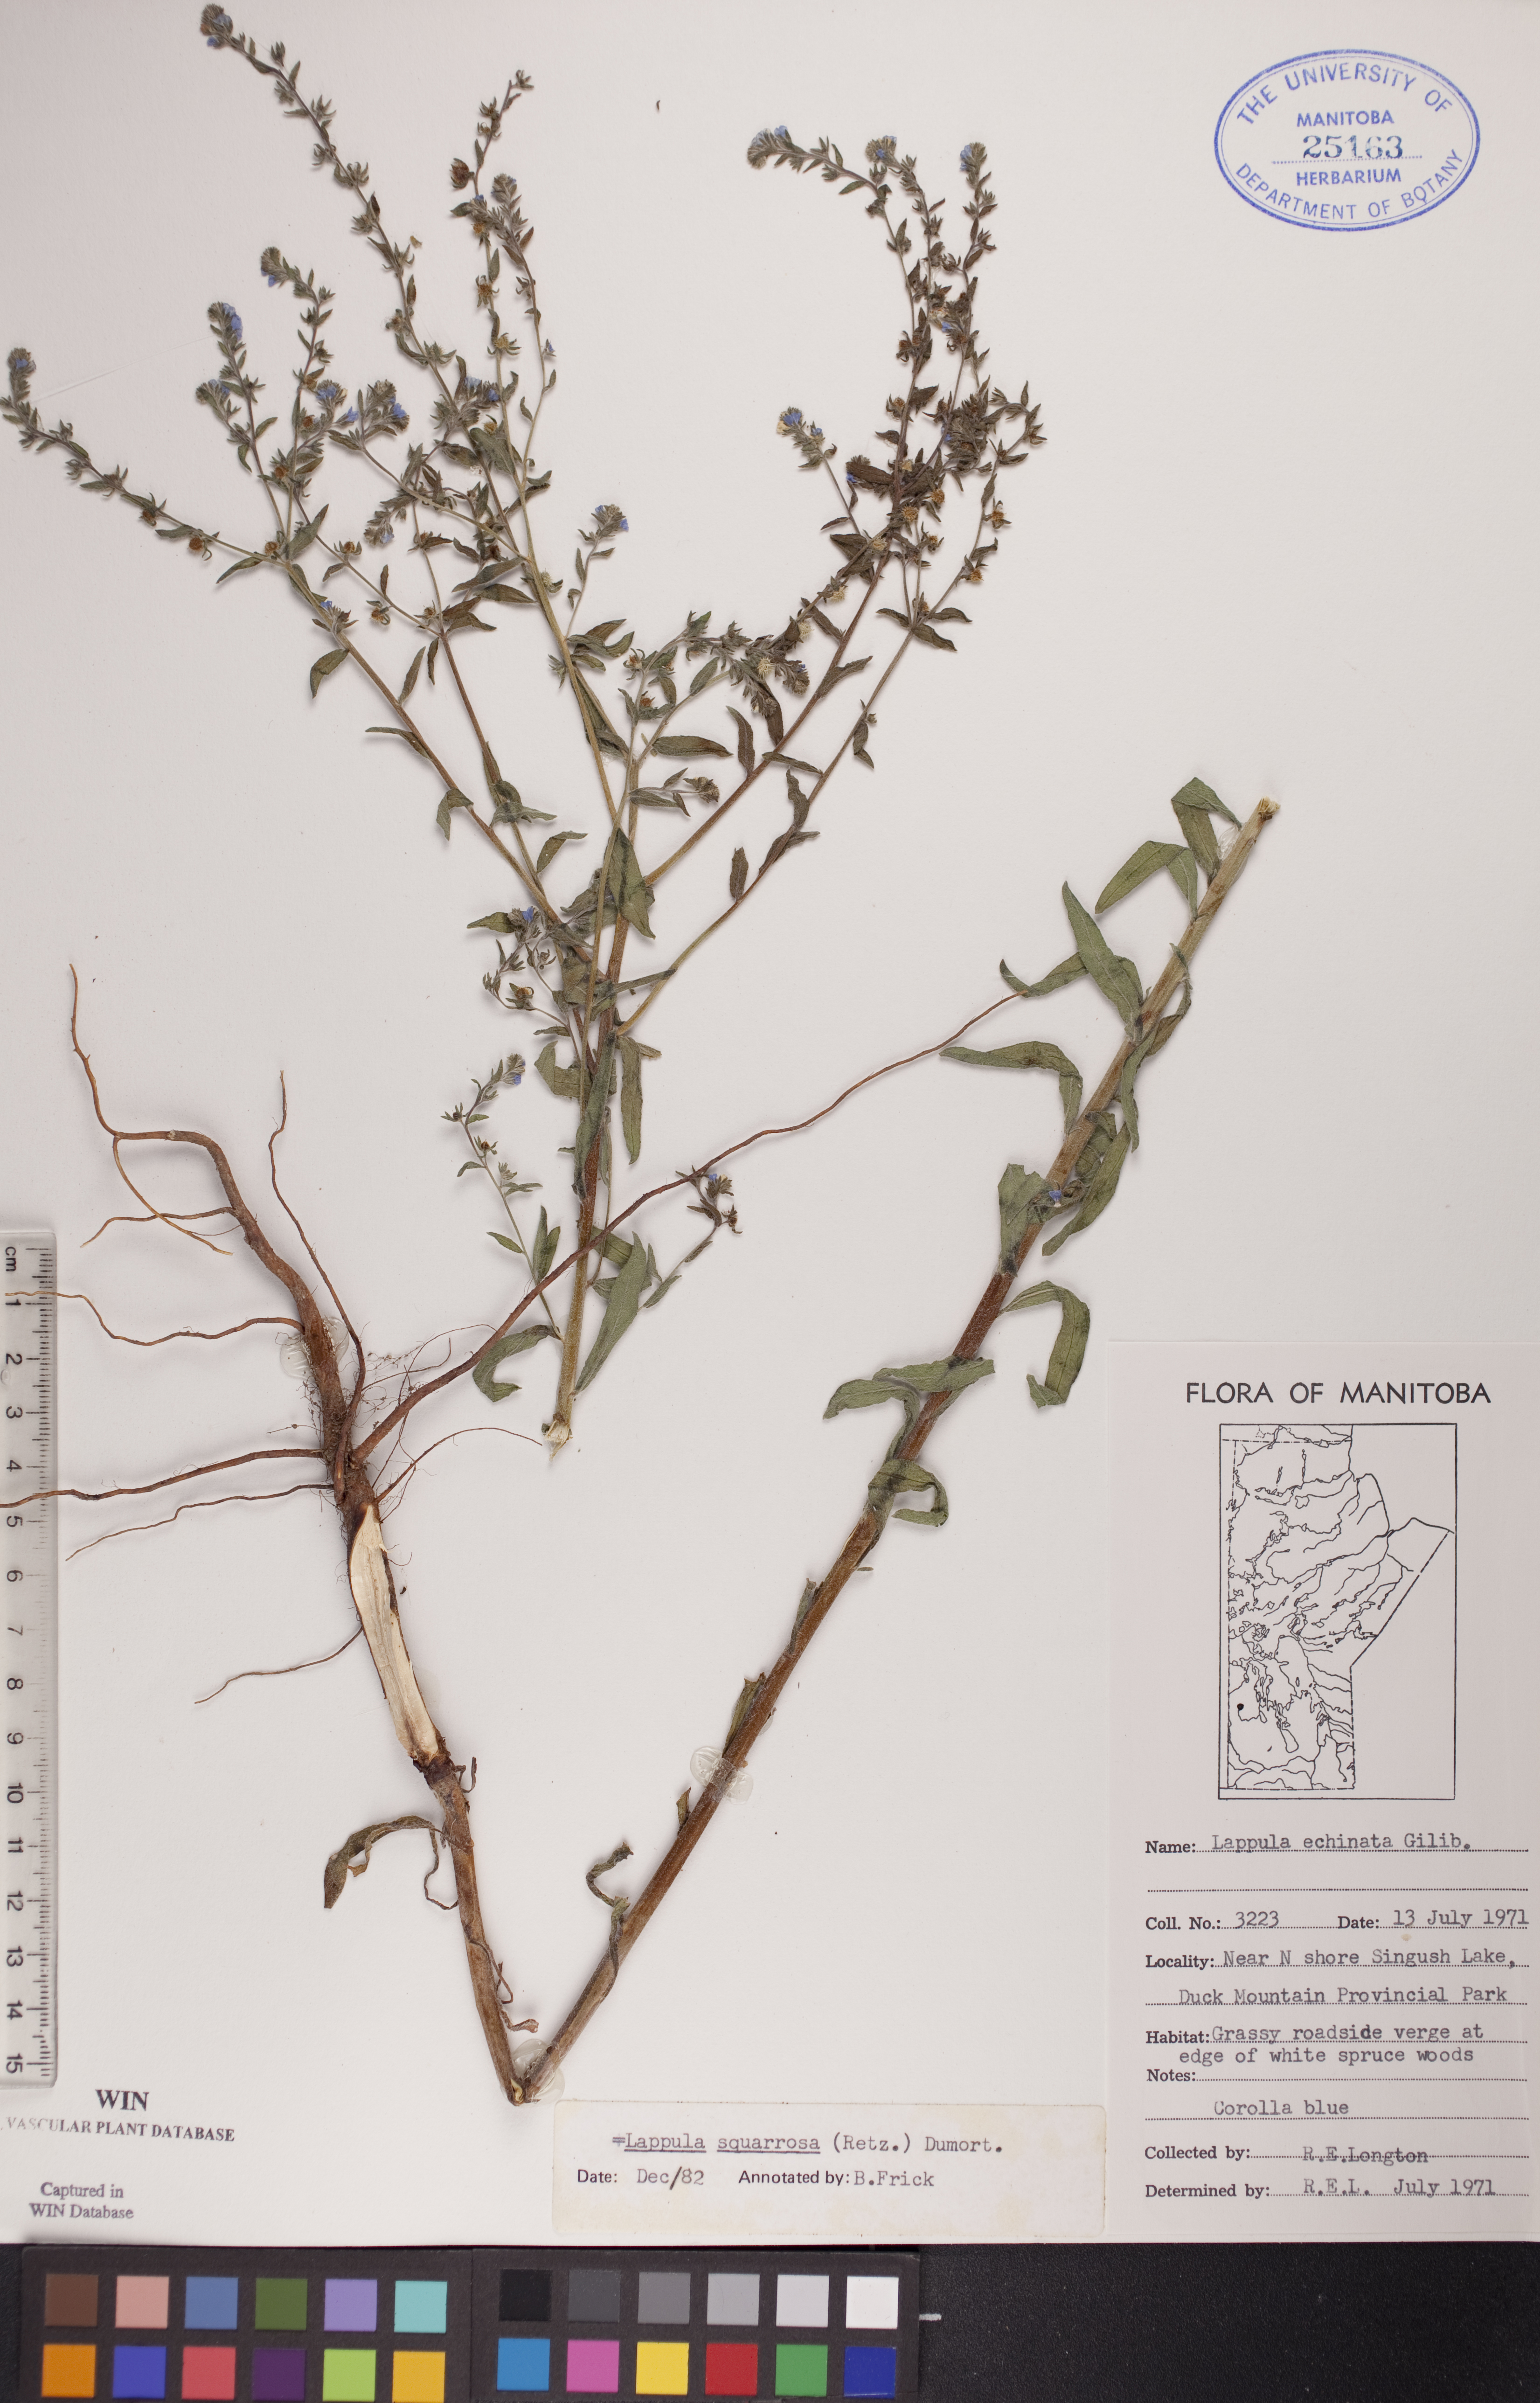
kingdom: Plantae
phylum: Tracheophyta
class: Magnoliopsida
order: Boraginales
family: Boraginaceae
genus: Lappula
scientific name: Lappula squarrosa
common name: European stickseed
